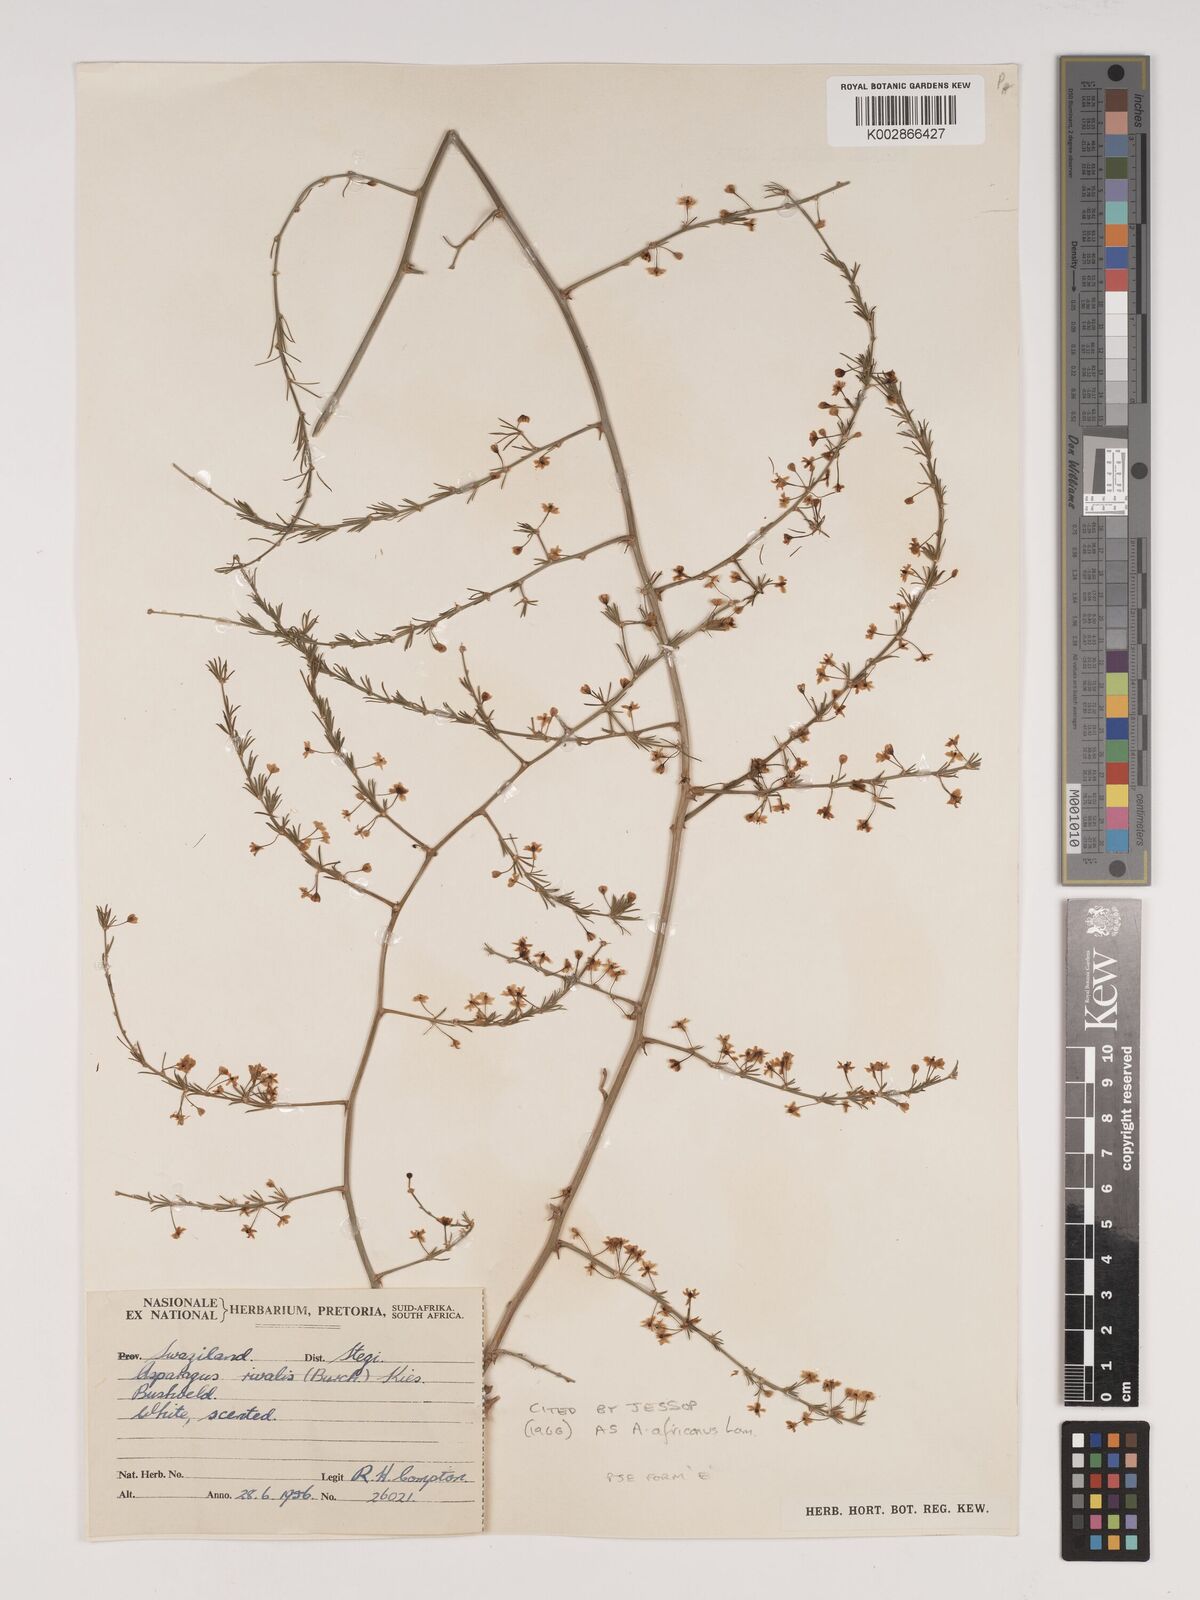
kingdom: Plantae
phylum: Tracheophyta
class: Liliopsida
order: Asparagales
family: Asparagaceae
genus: Asparagus
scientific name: Asparagus africanus
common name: Asparagus-fern
